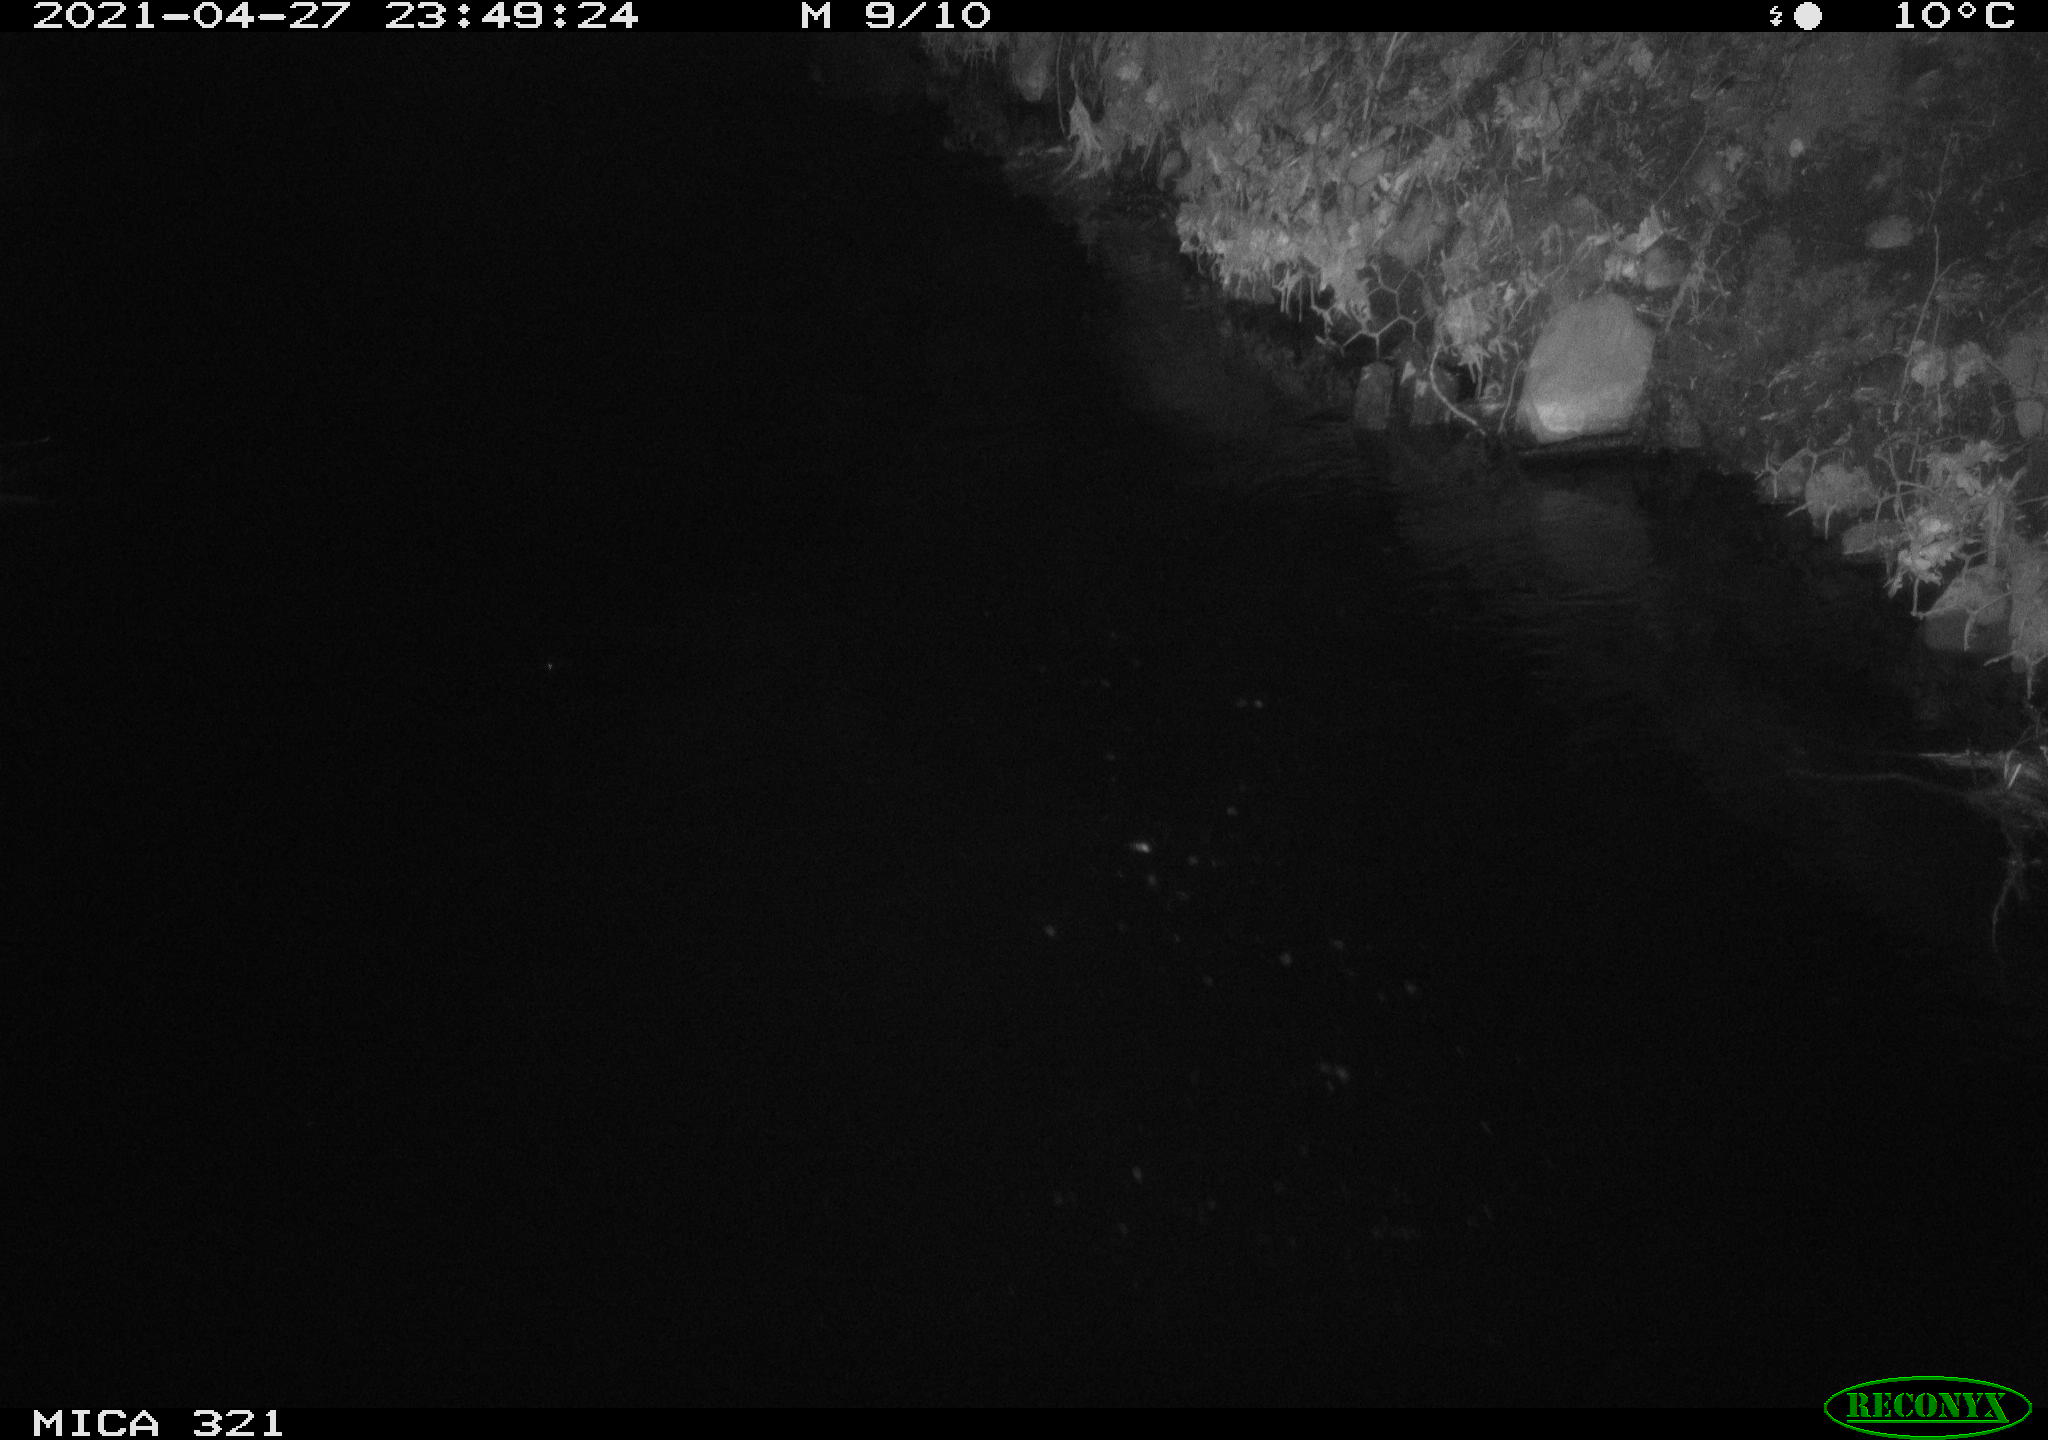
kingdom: Animalia
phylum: Chordata
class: Aves
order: Anseriformes
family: Anatidae
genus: Anas
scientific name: Anas
